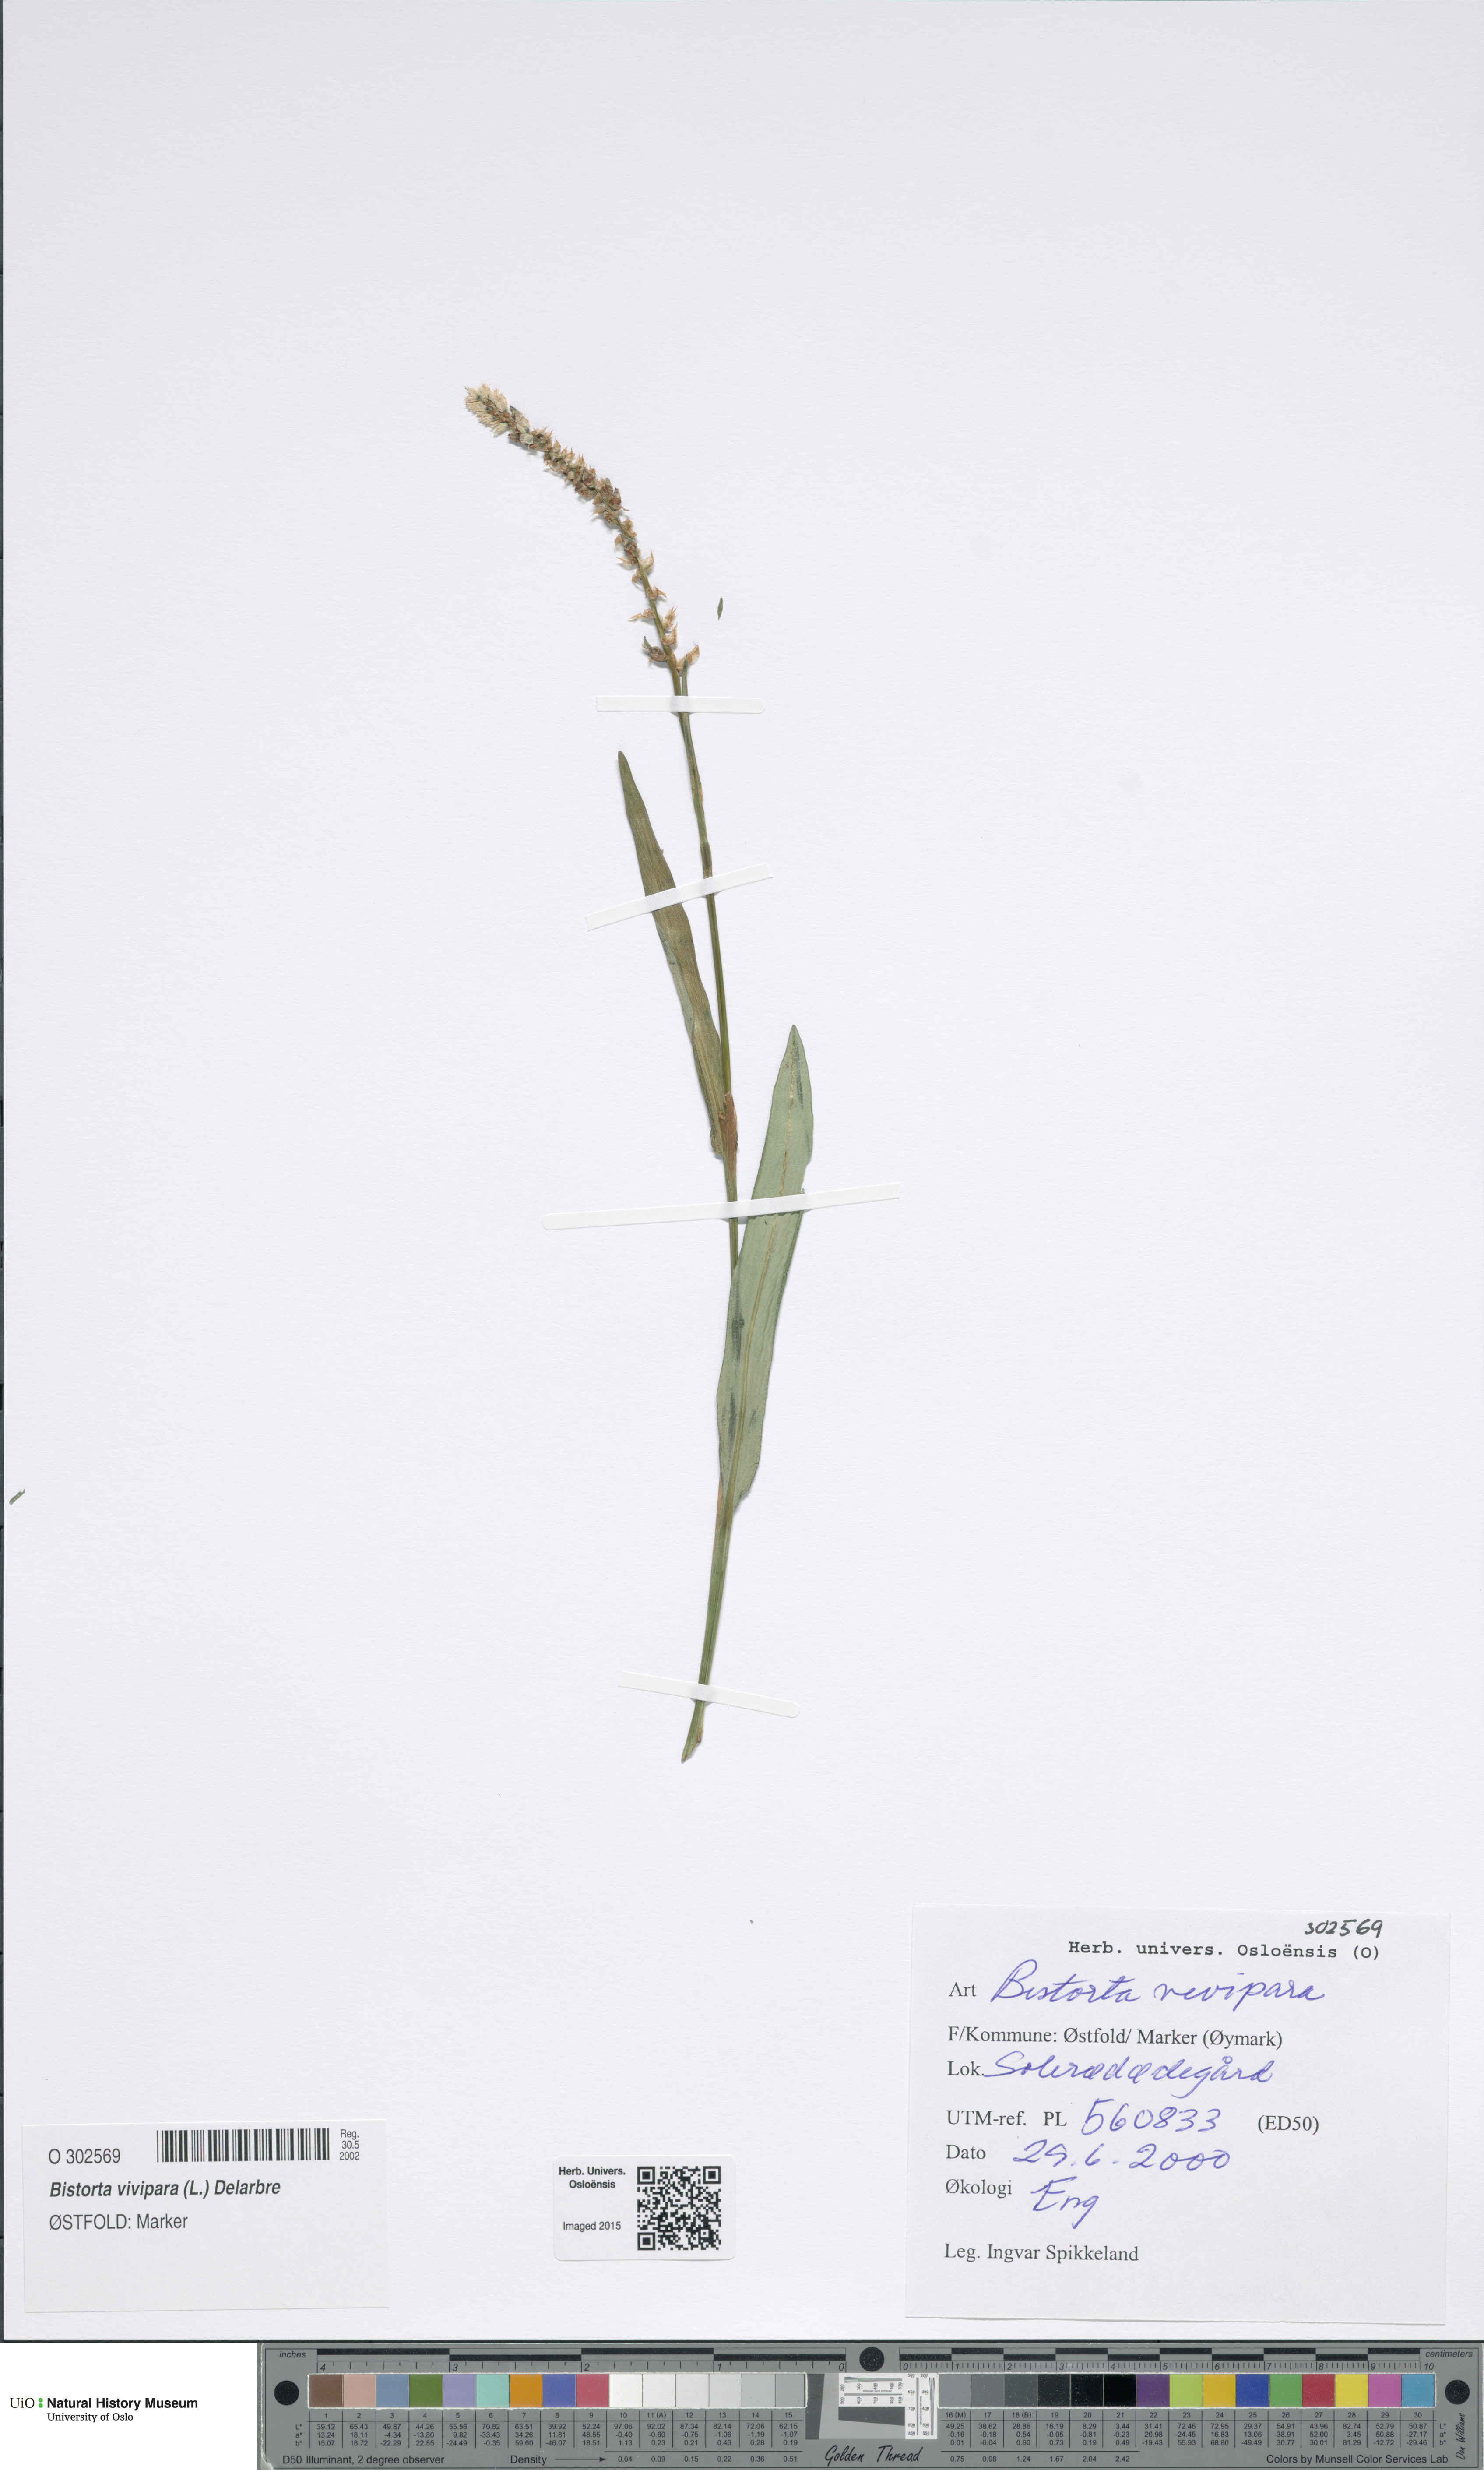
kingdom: Plantae
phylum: Tracheophyta
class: Magnoliopsida
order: Caryophyllales
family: Polygonaceae
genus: Bistorta
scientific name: Bistorta vivipara
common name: Alpine bistort
